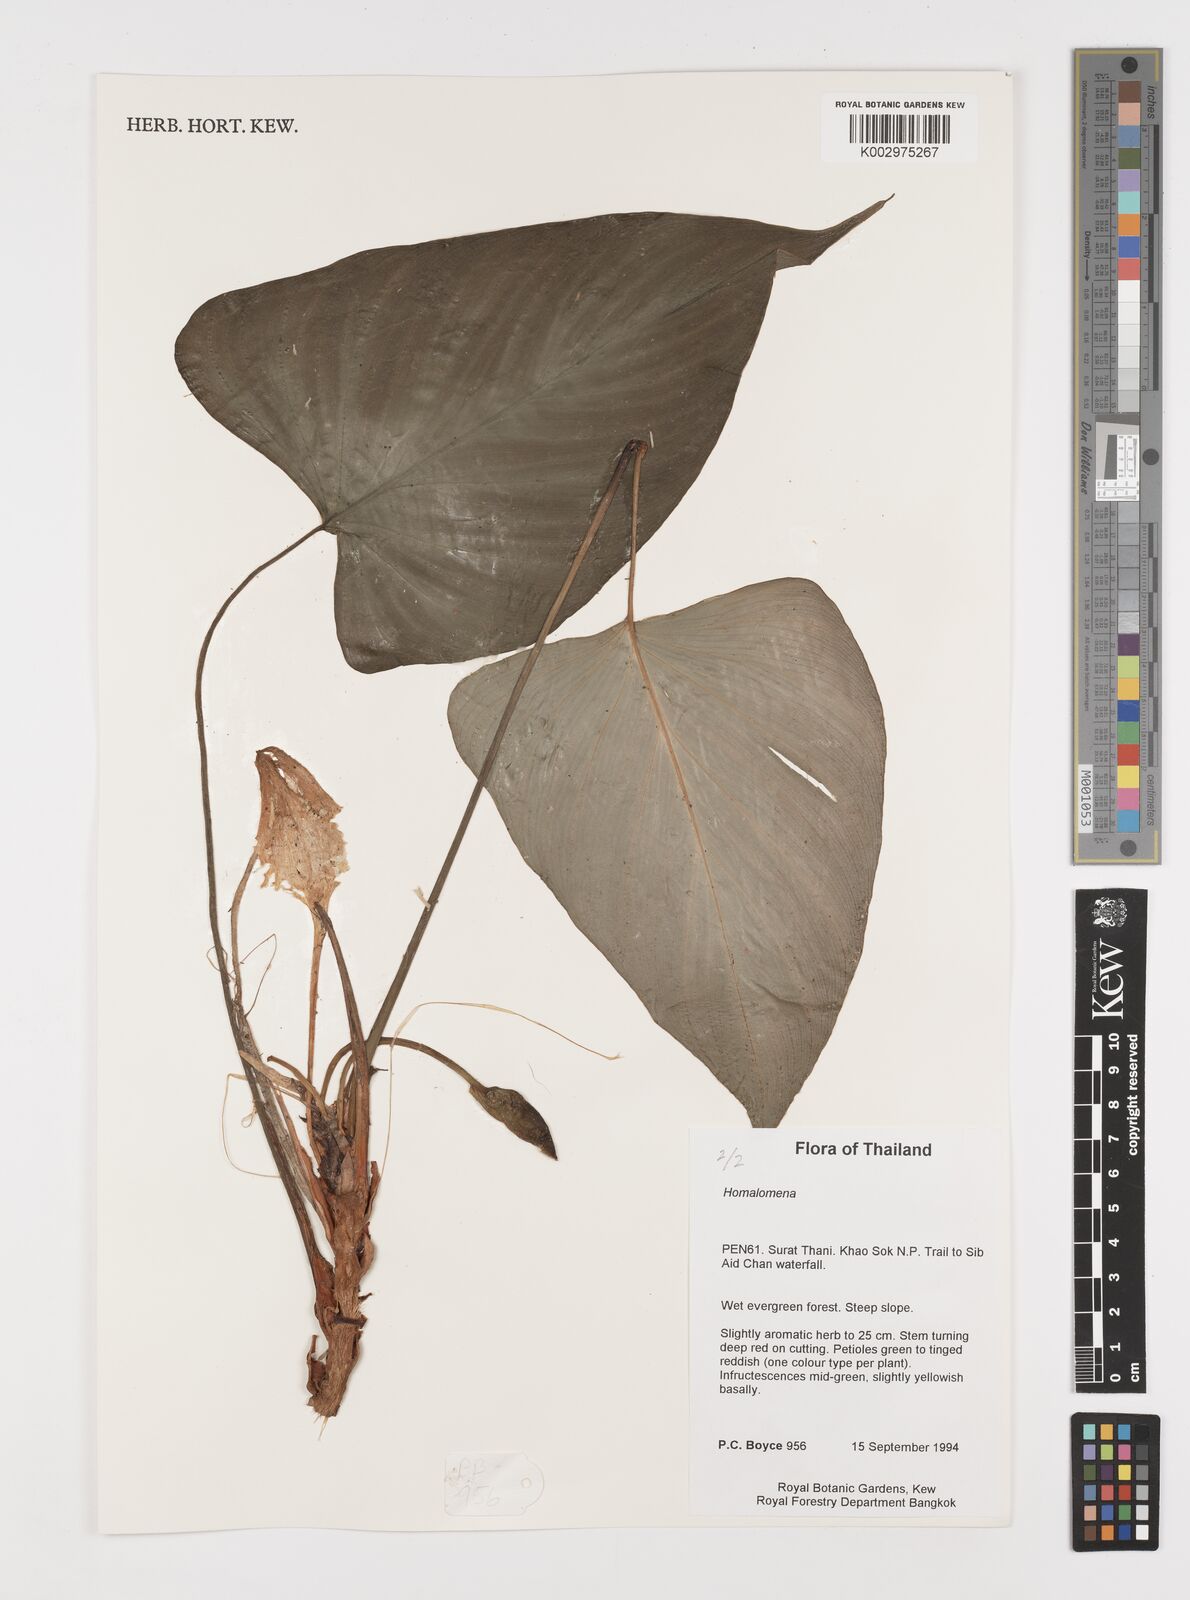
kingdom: Plantae
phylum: Tracheophyta
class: Liliopsida
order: Alismatales
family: Araceae
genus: Homalomena
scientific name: Homalomena
